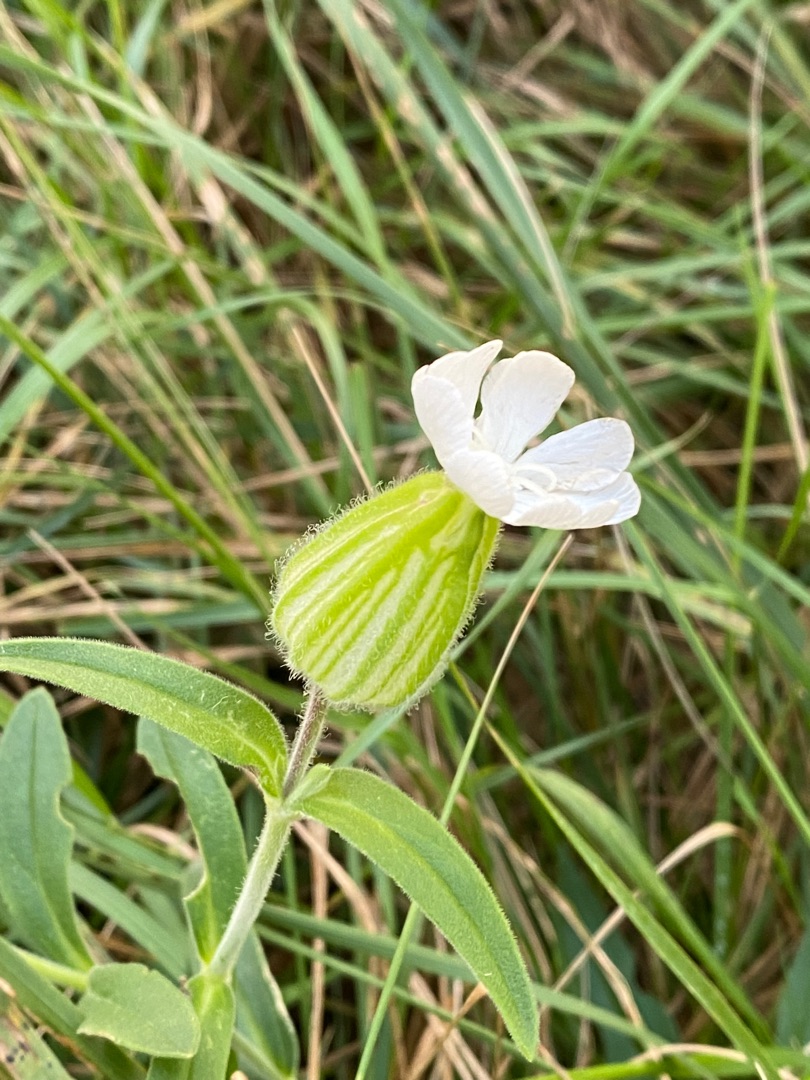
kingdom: Plantae
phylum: Tracheophyta
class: Magnoliopsida
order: Caryophyllales
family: Caryophyllaceae
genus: Silene
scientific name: Silene latifolia
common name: Aftenpragtstjerne
